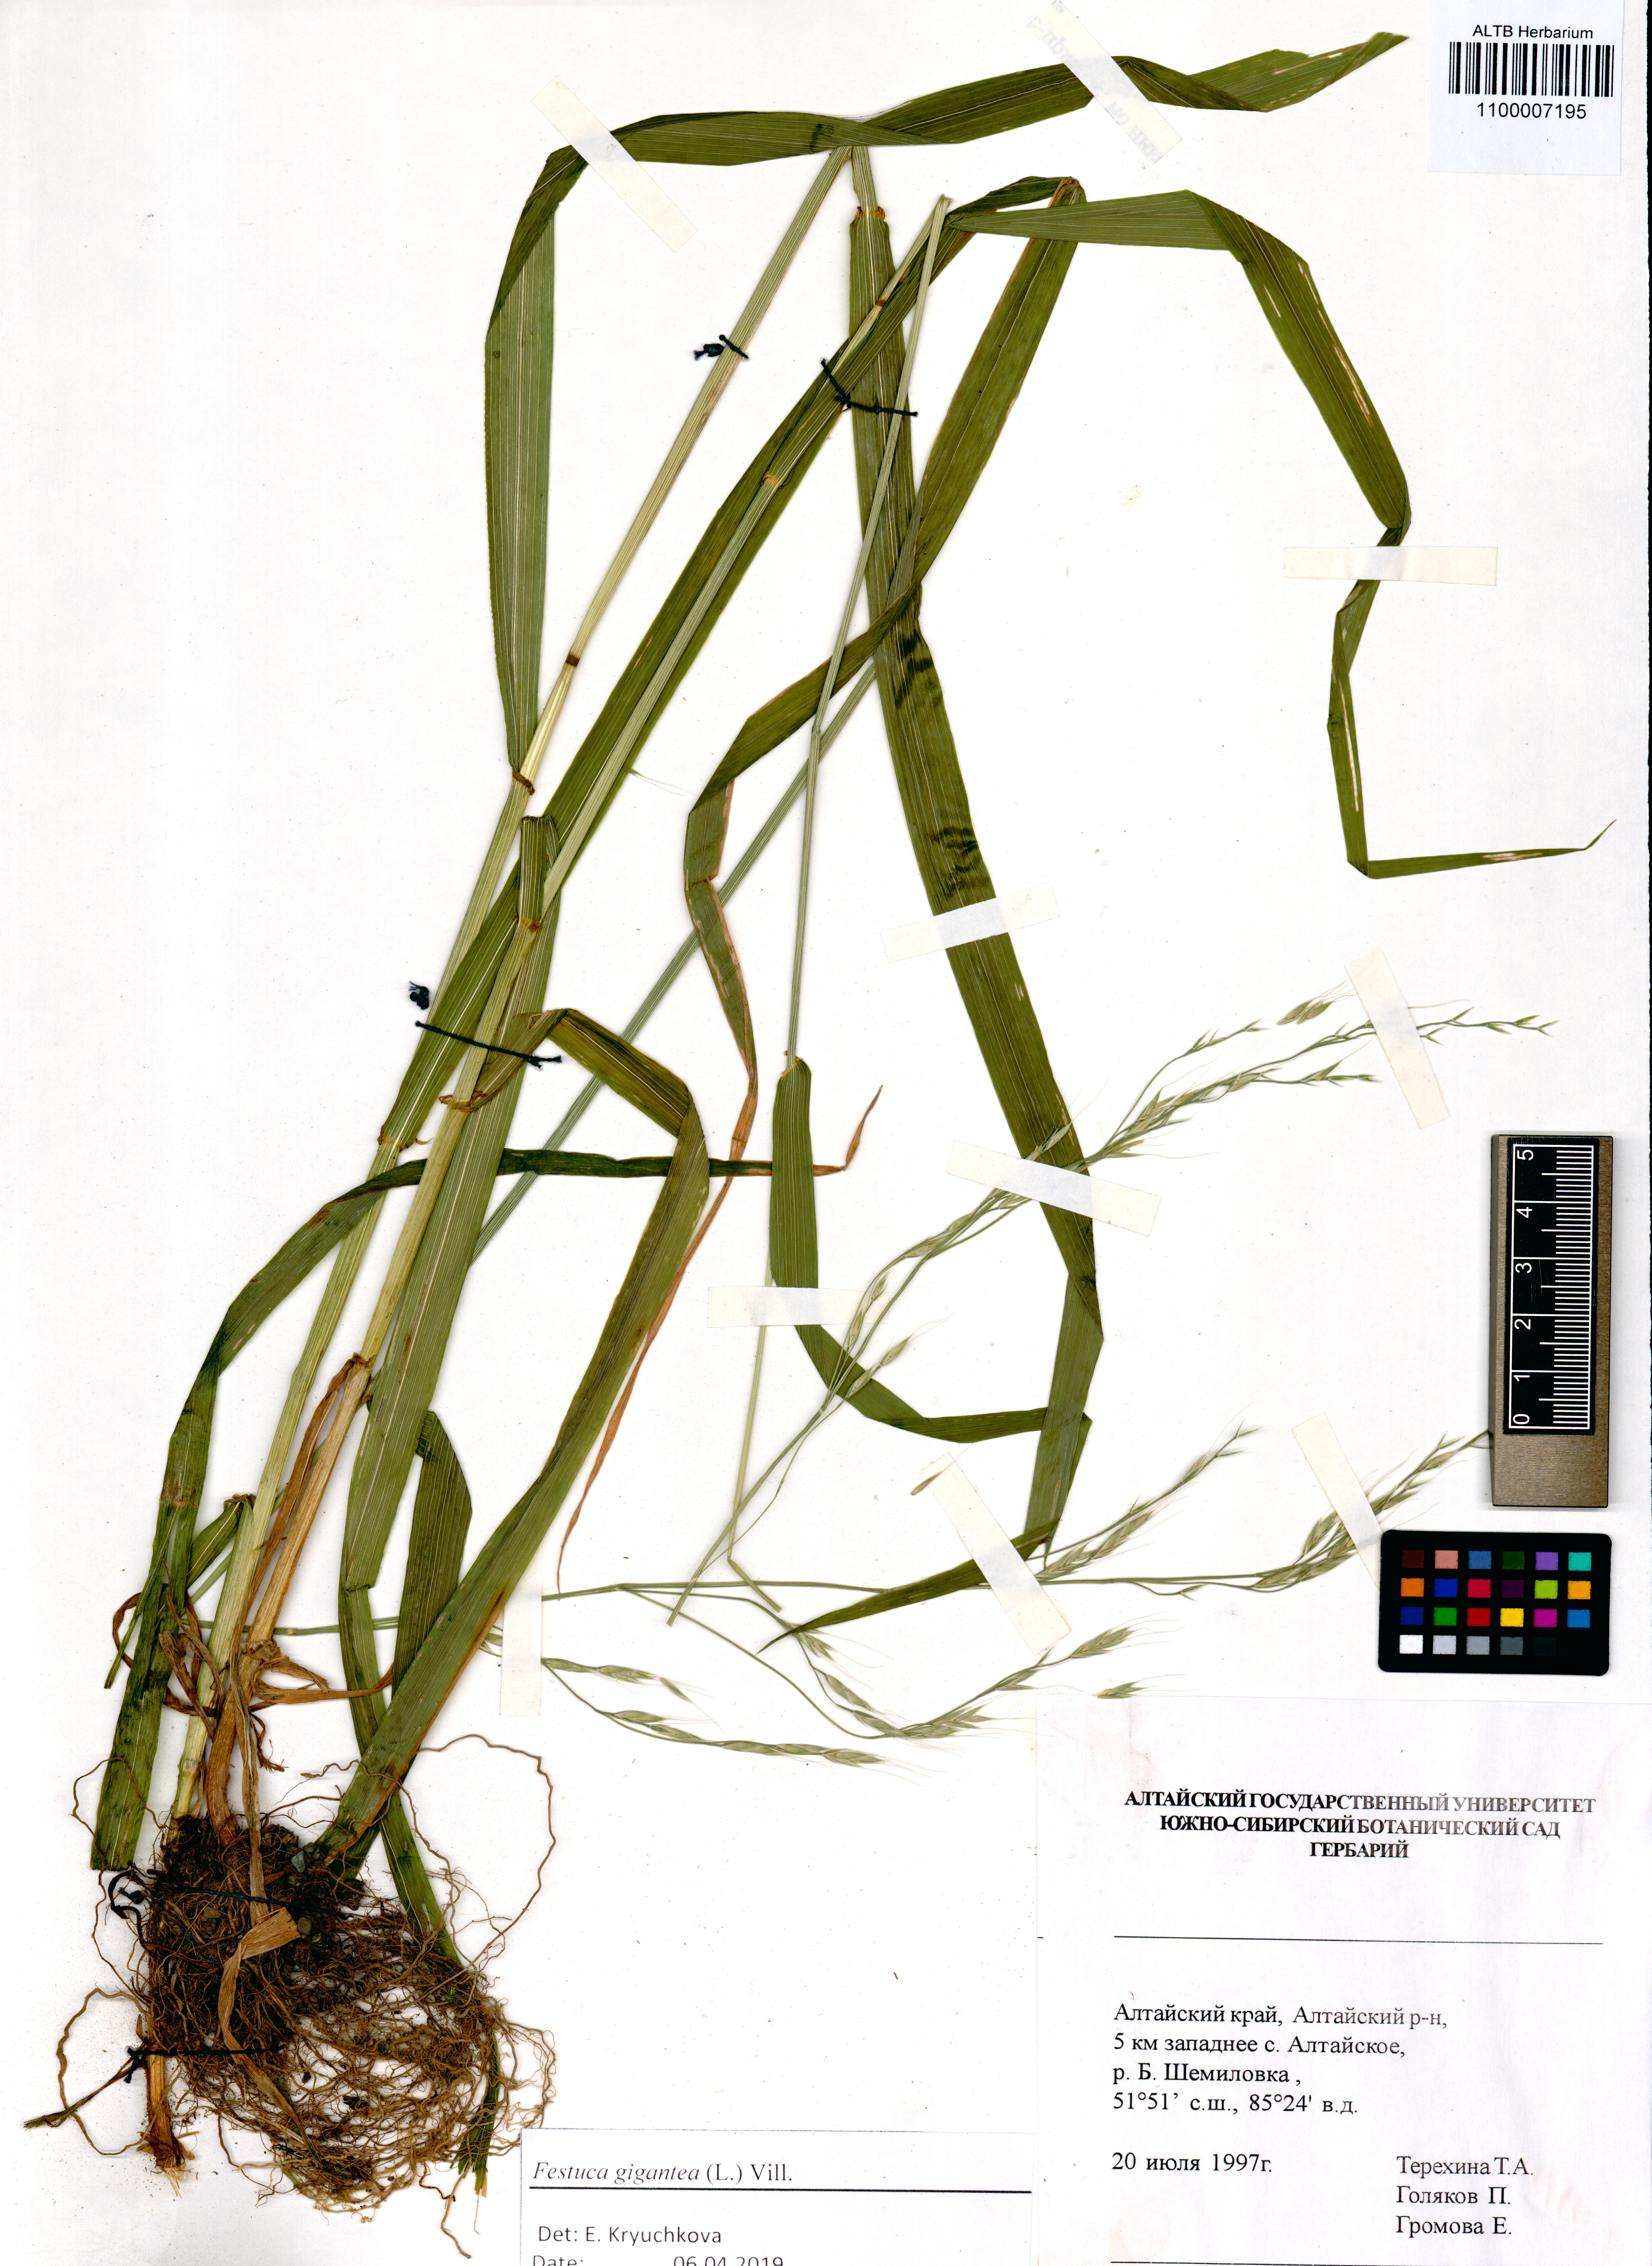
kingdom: Plantae
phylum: Tracheophyta
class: Liliopsida
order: Poales
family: Poaceae
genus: Lolium
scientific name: Lolium giganteum
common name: Giant fescue
